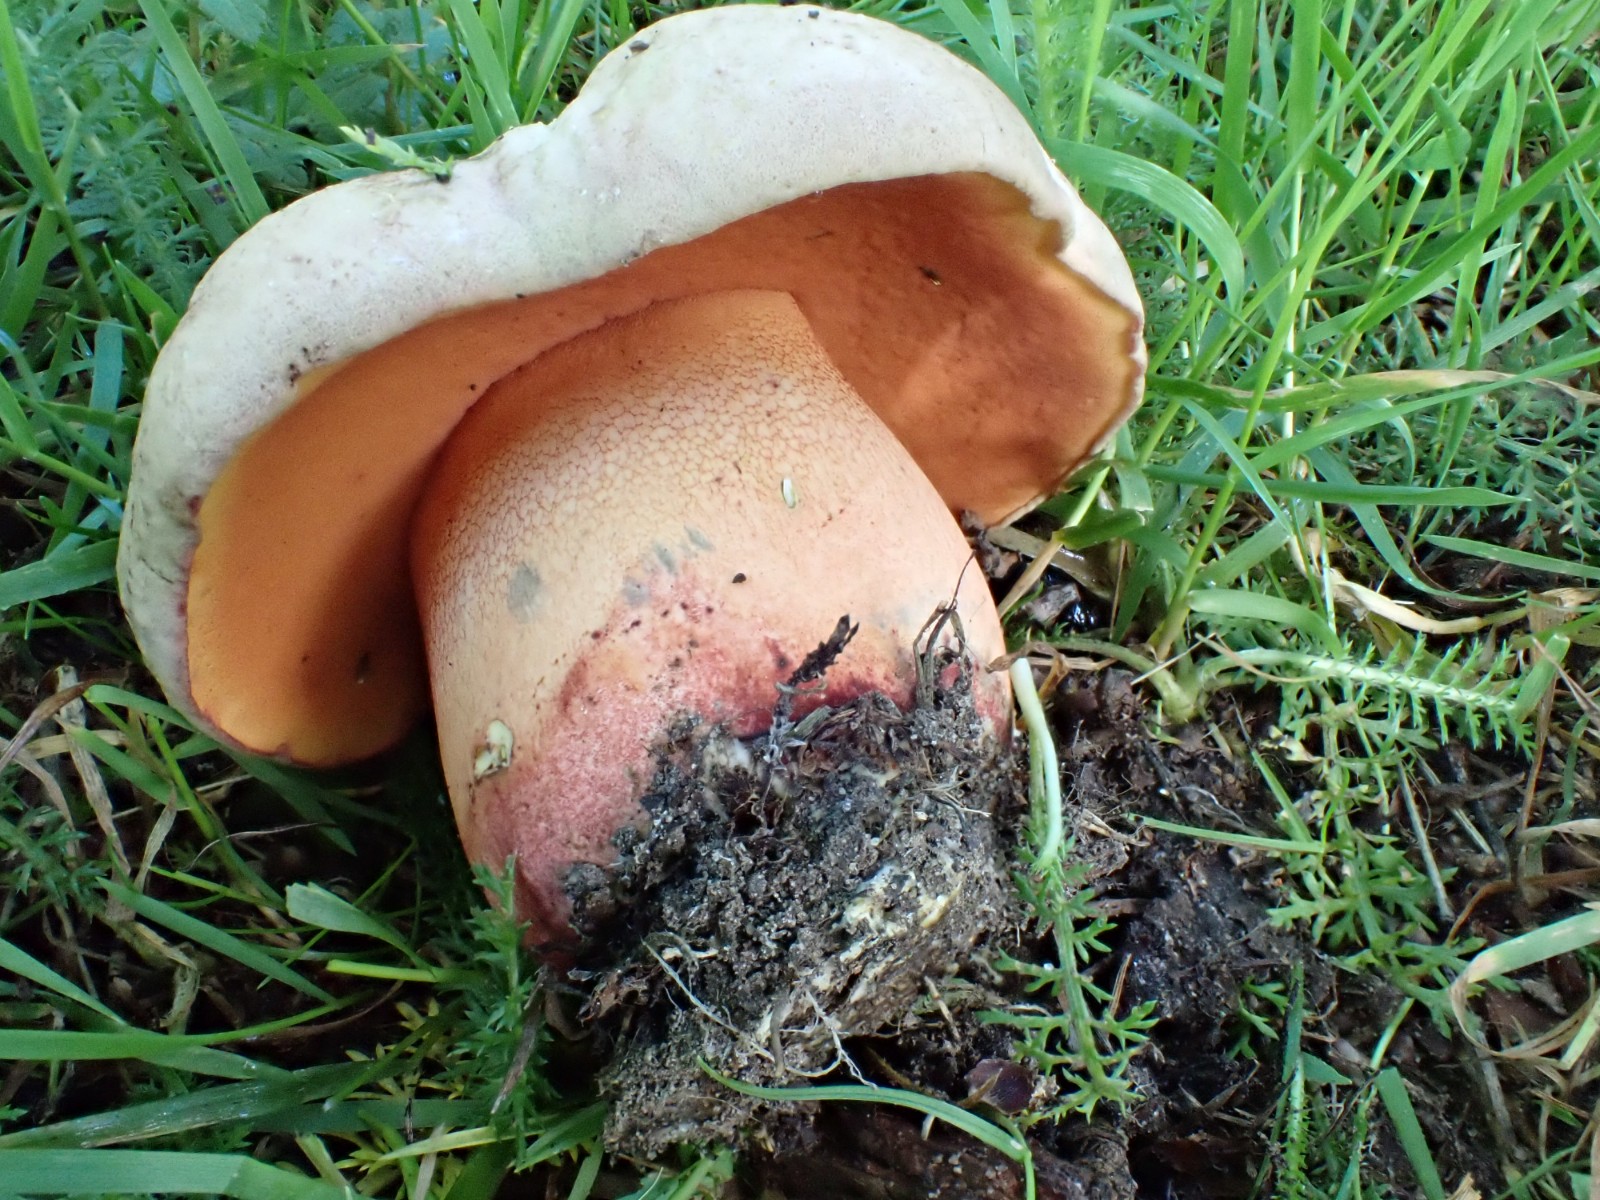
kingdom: Fungi
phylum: Basidiomycota
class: Agaricomycetes
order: Boletales
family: Boletaceae
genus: Rubroboletus
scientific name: Rubroboletus legaliae
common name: djævle-rørhat
